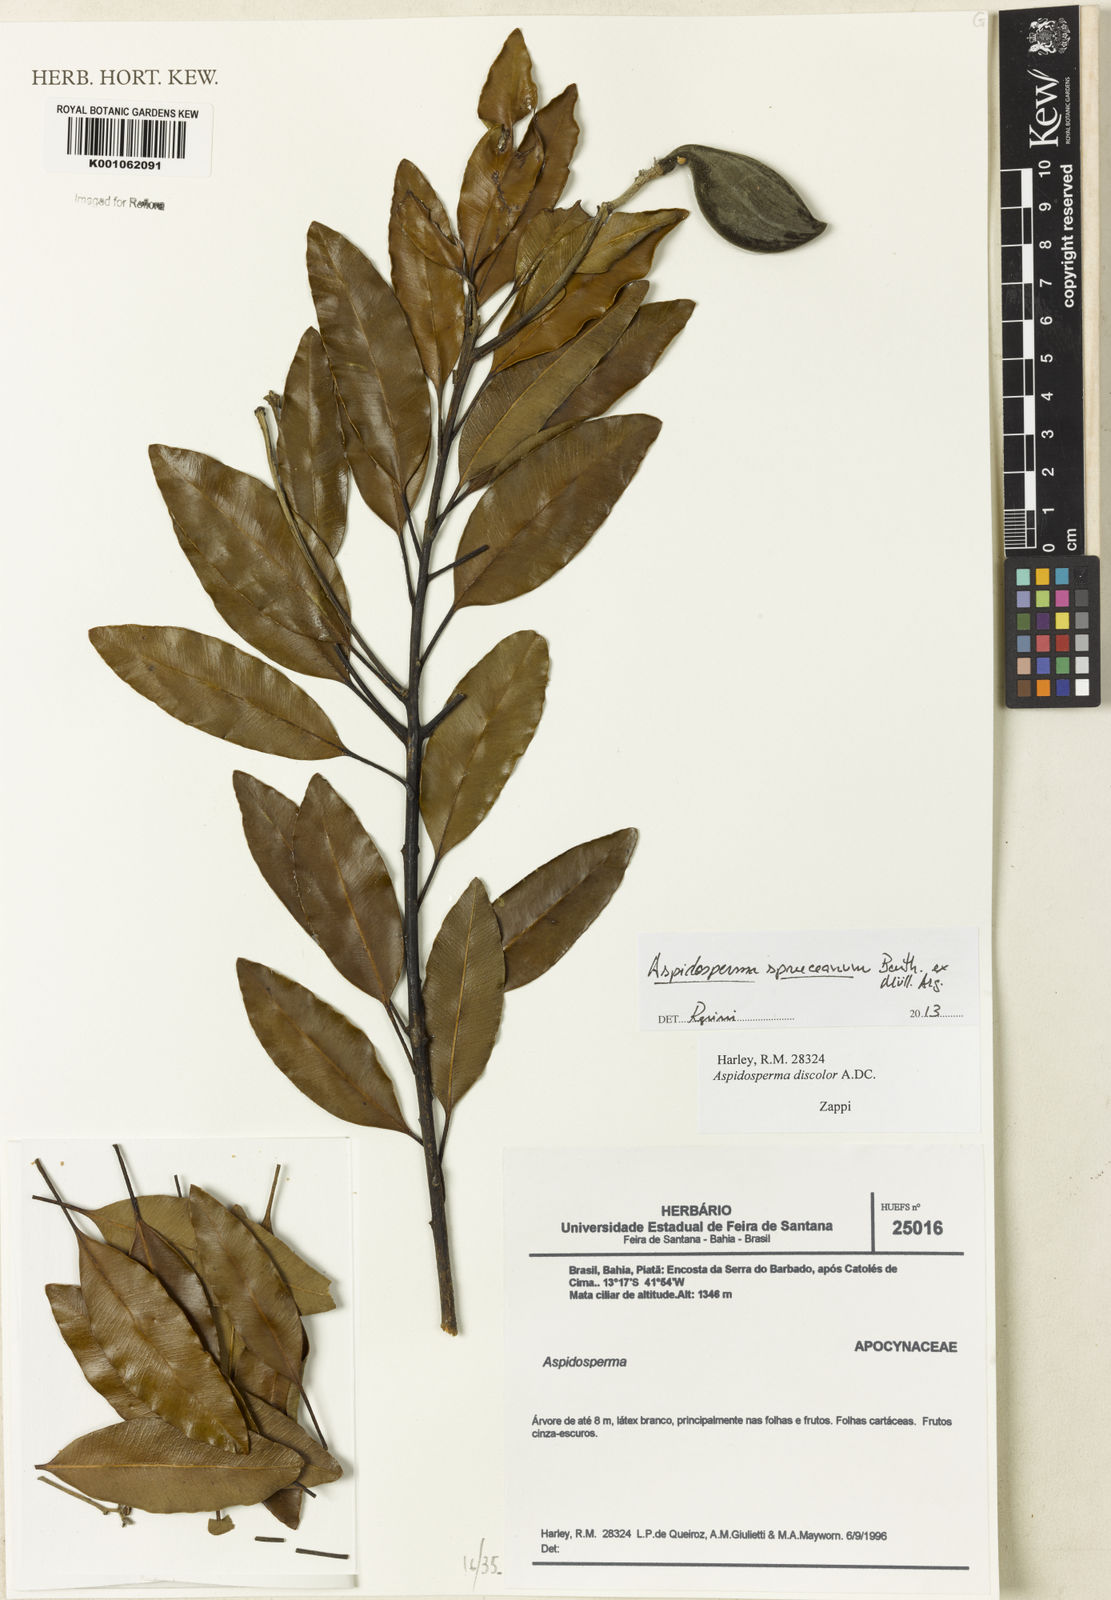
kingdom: Plantae
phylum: Tracheophyta
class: Magnoliopsida
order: Gentianales
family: Apocynaceae
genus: Aspidosperma
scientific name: Aspidosperma
